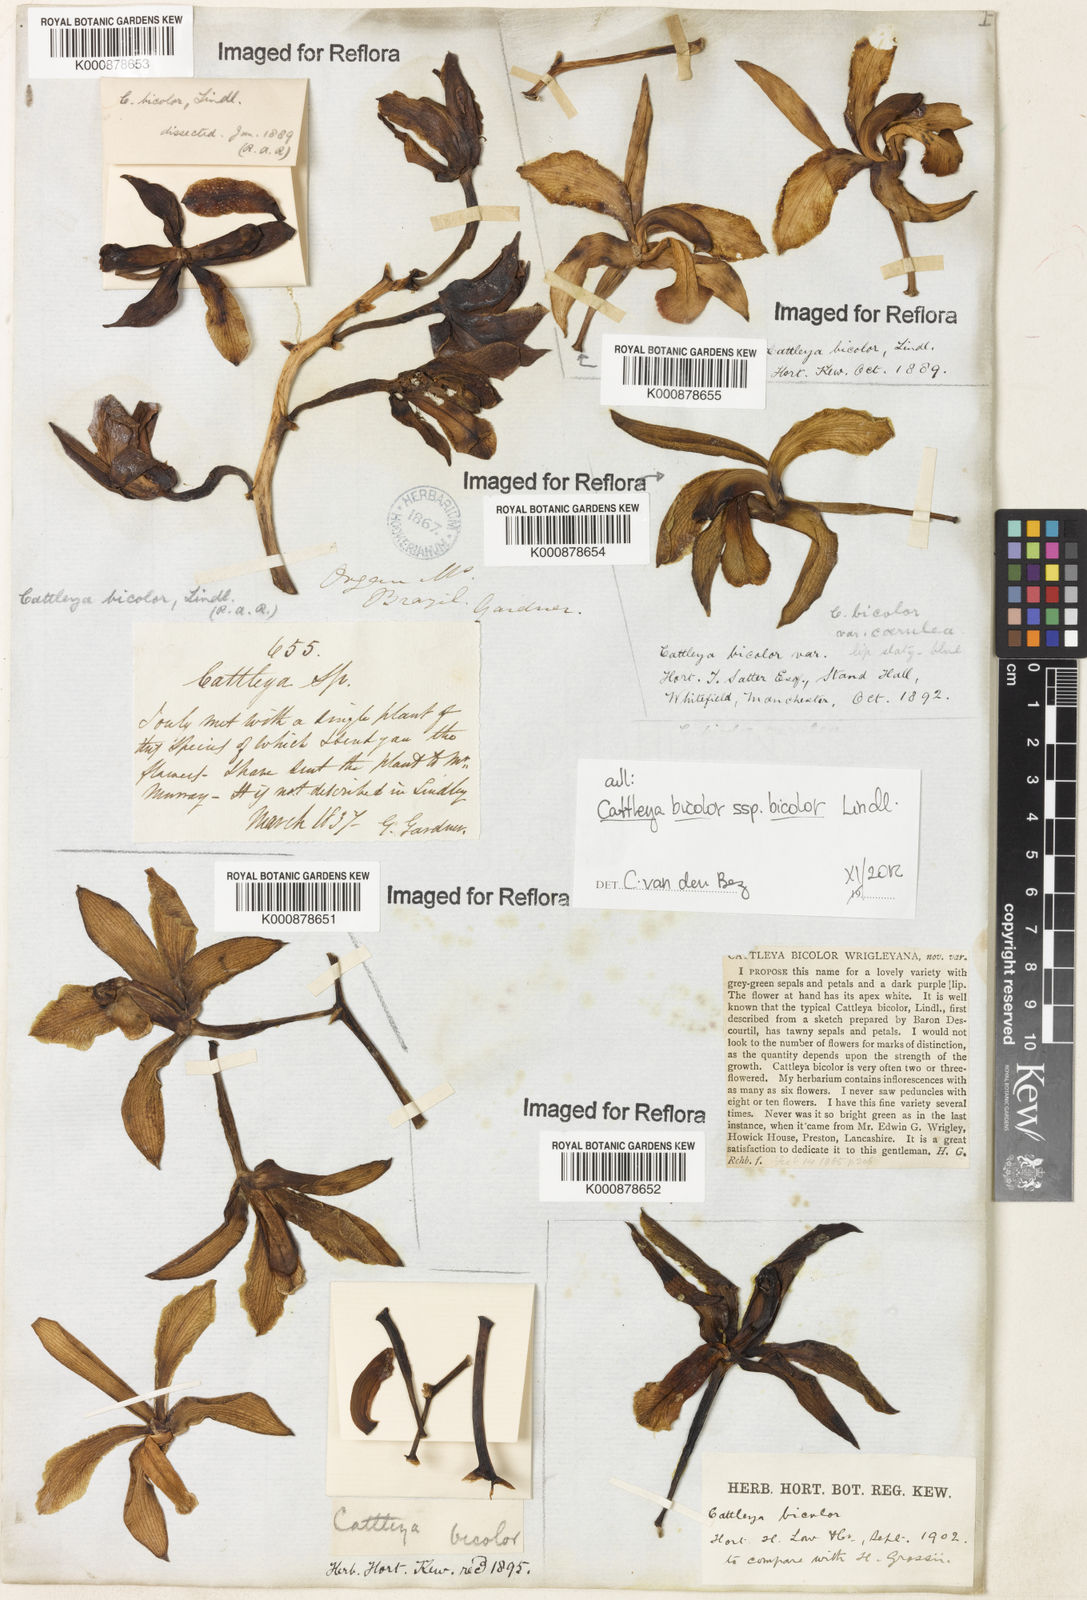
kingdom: Plantae
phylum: Tracheophyta
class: Liliopsida
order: Asparagales
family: Orchidaceae
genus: Cattleya
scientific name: Cattleya bicolor
